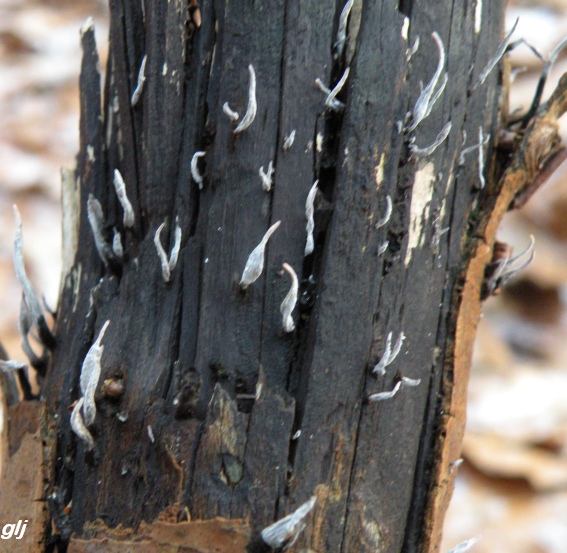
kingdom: Fungi
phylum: Ascomycota
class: Sordariomycetes
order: Xylariales
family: Xylariaceae
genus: Xylaria
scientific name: Xylaria hypoxylon
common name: grenet stødsvamp
